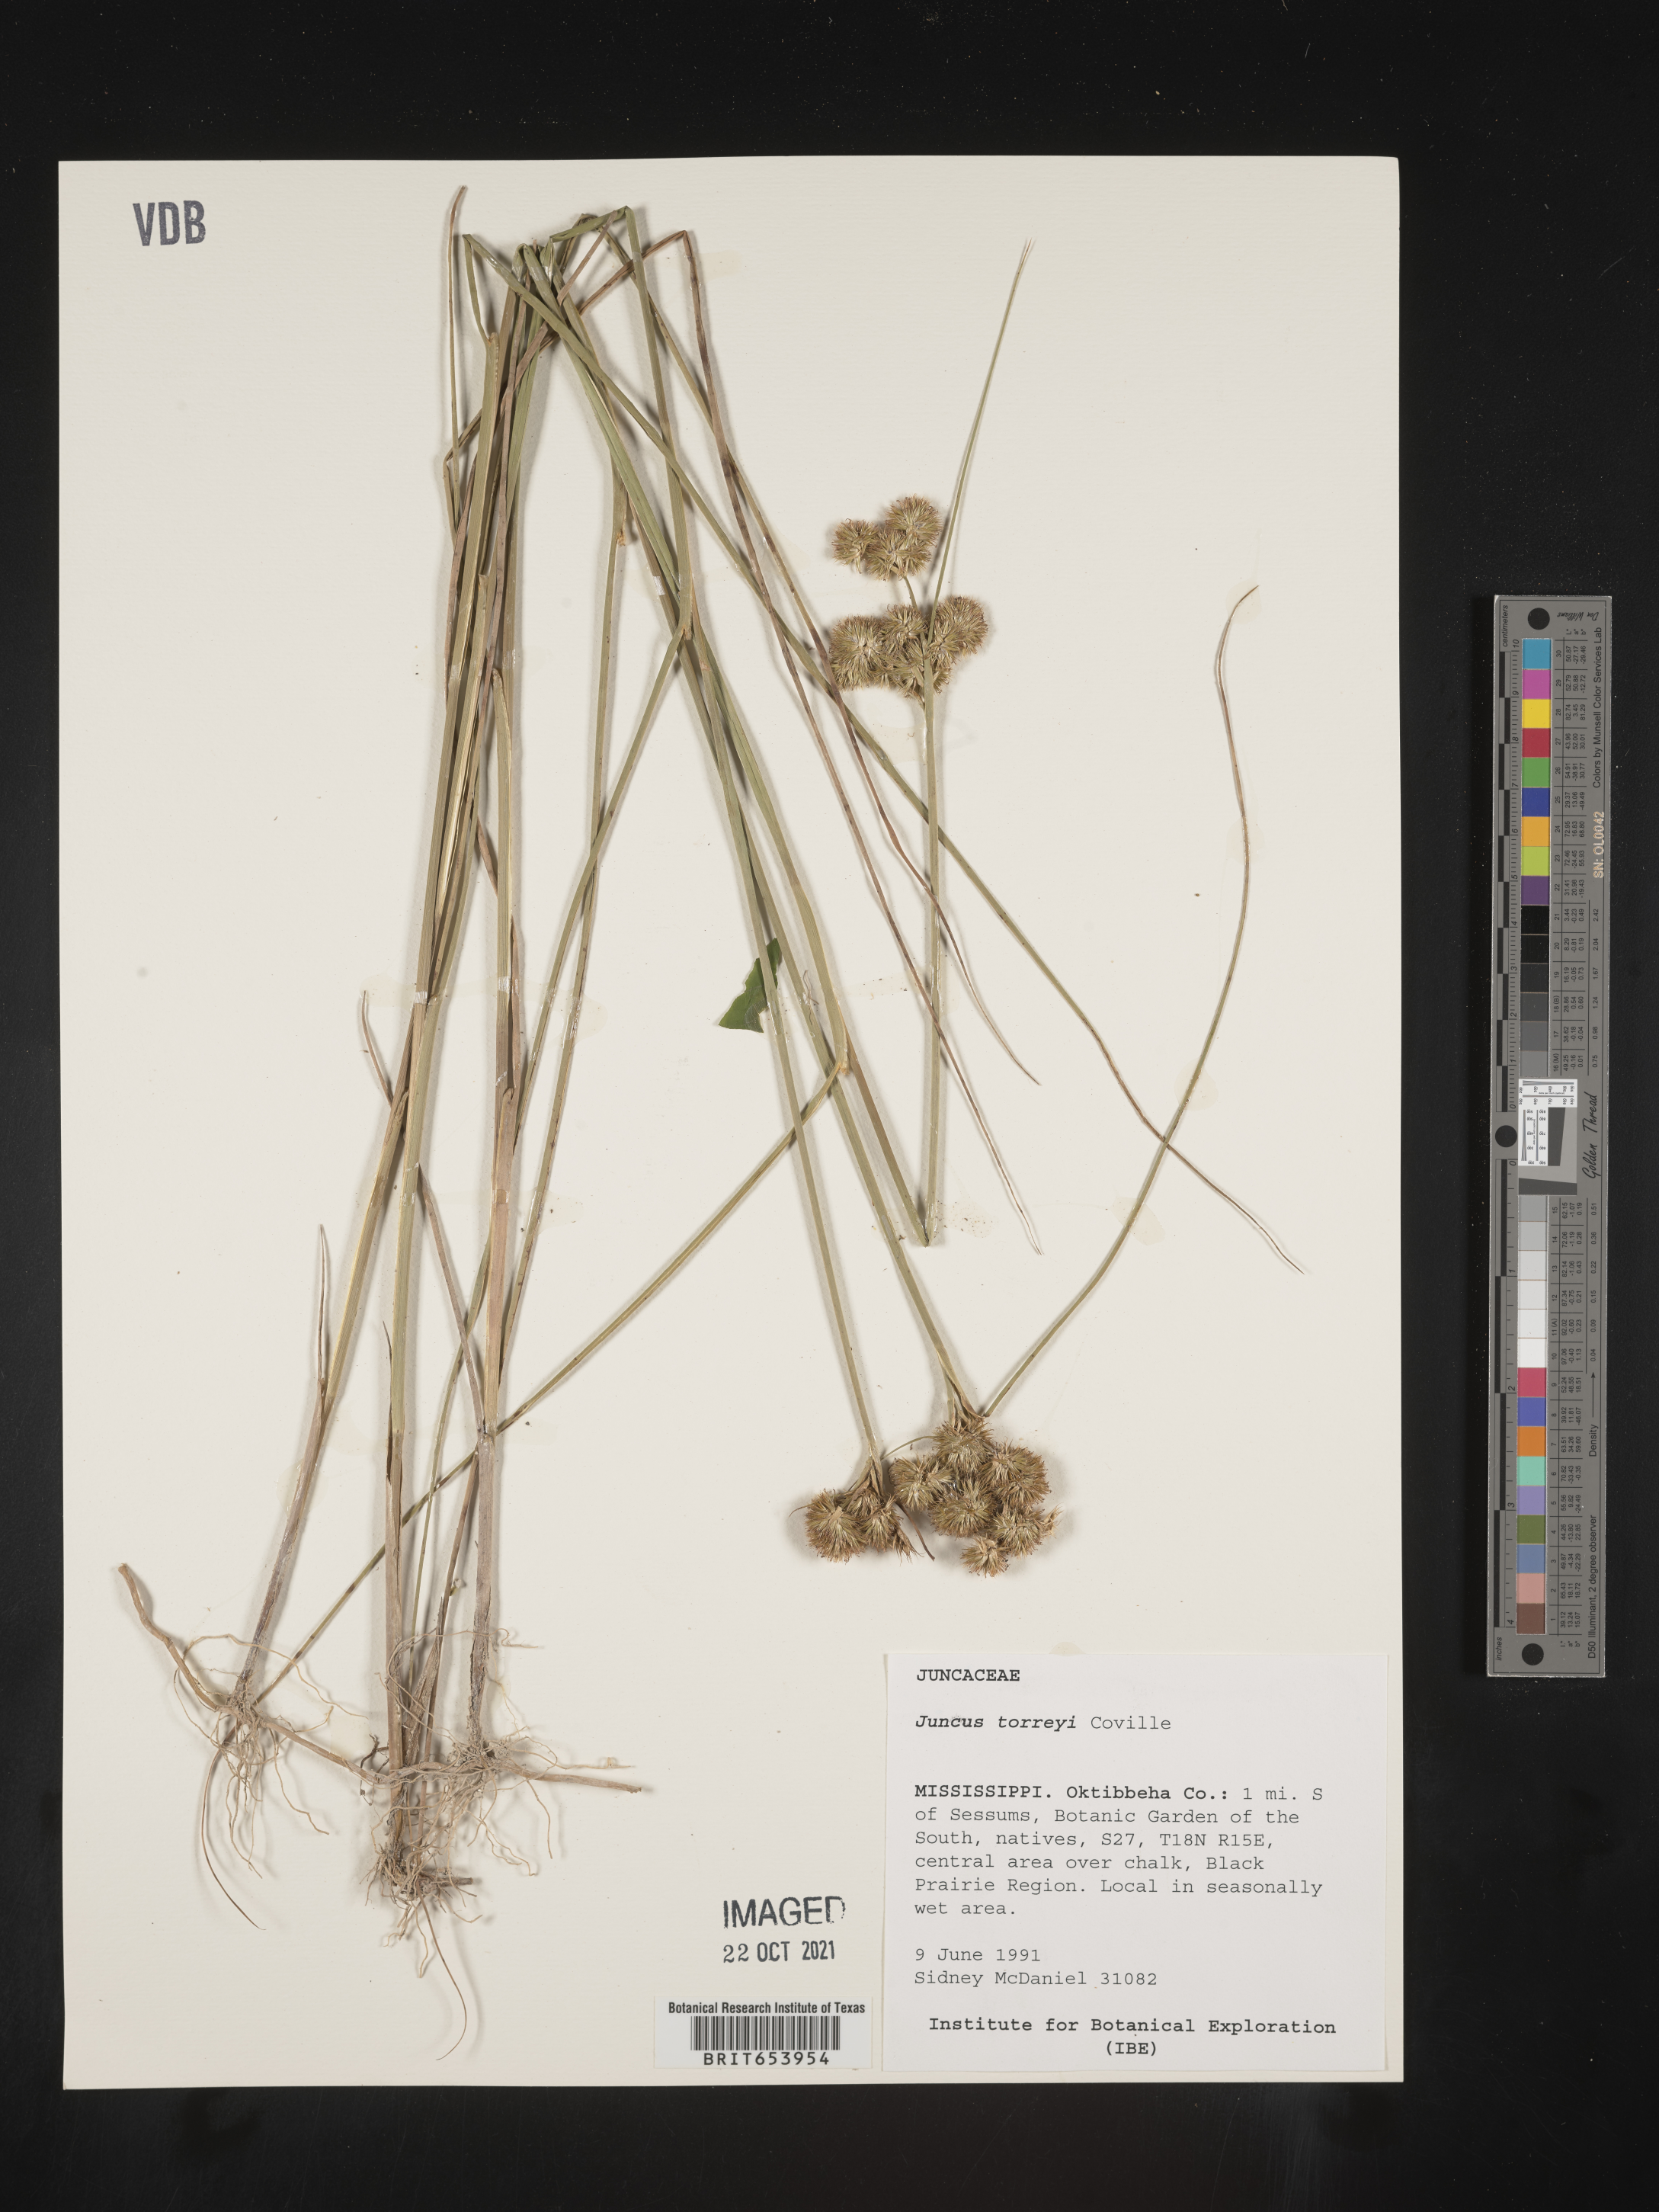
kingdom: Plantae
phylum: Tracheophyta
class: Liliopsida
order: Poales
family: Juncaceae
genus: Juncus
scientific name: Juncus torreyi
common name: Torrey's rush
